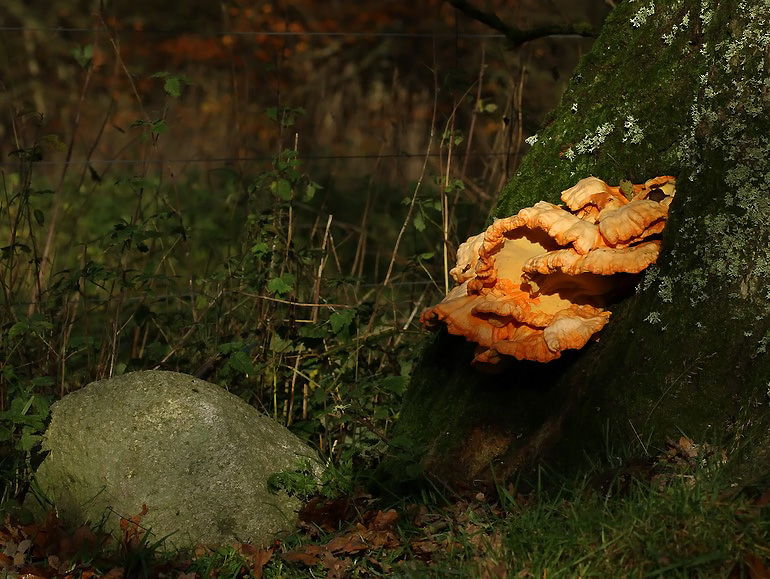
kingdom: Fungi
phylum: Basidiomycota
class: Agaricomycetes
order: Polyporales
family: Laetiporaceae
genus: Laetiporus
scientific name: Laetiporus sulphureus
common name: svovlporesvamp
